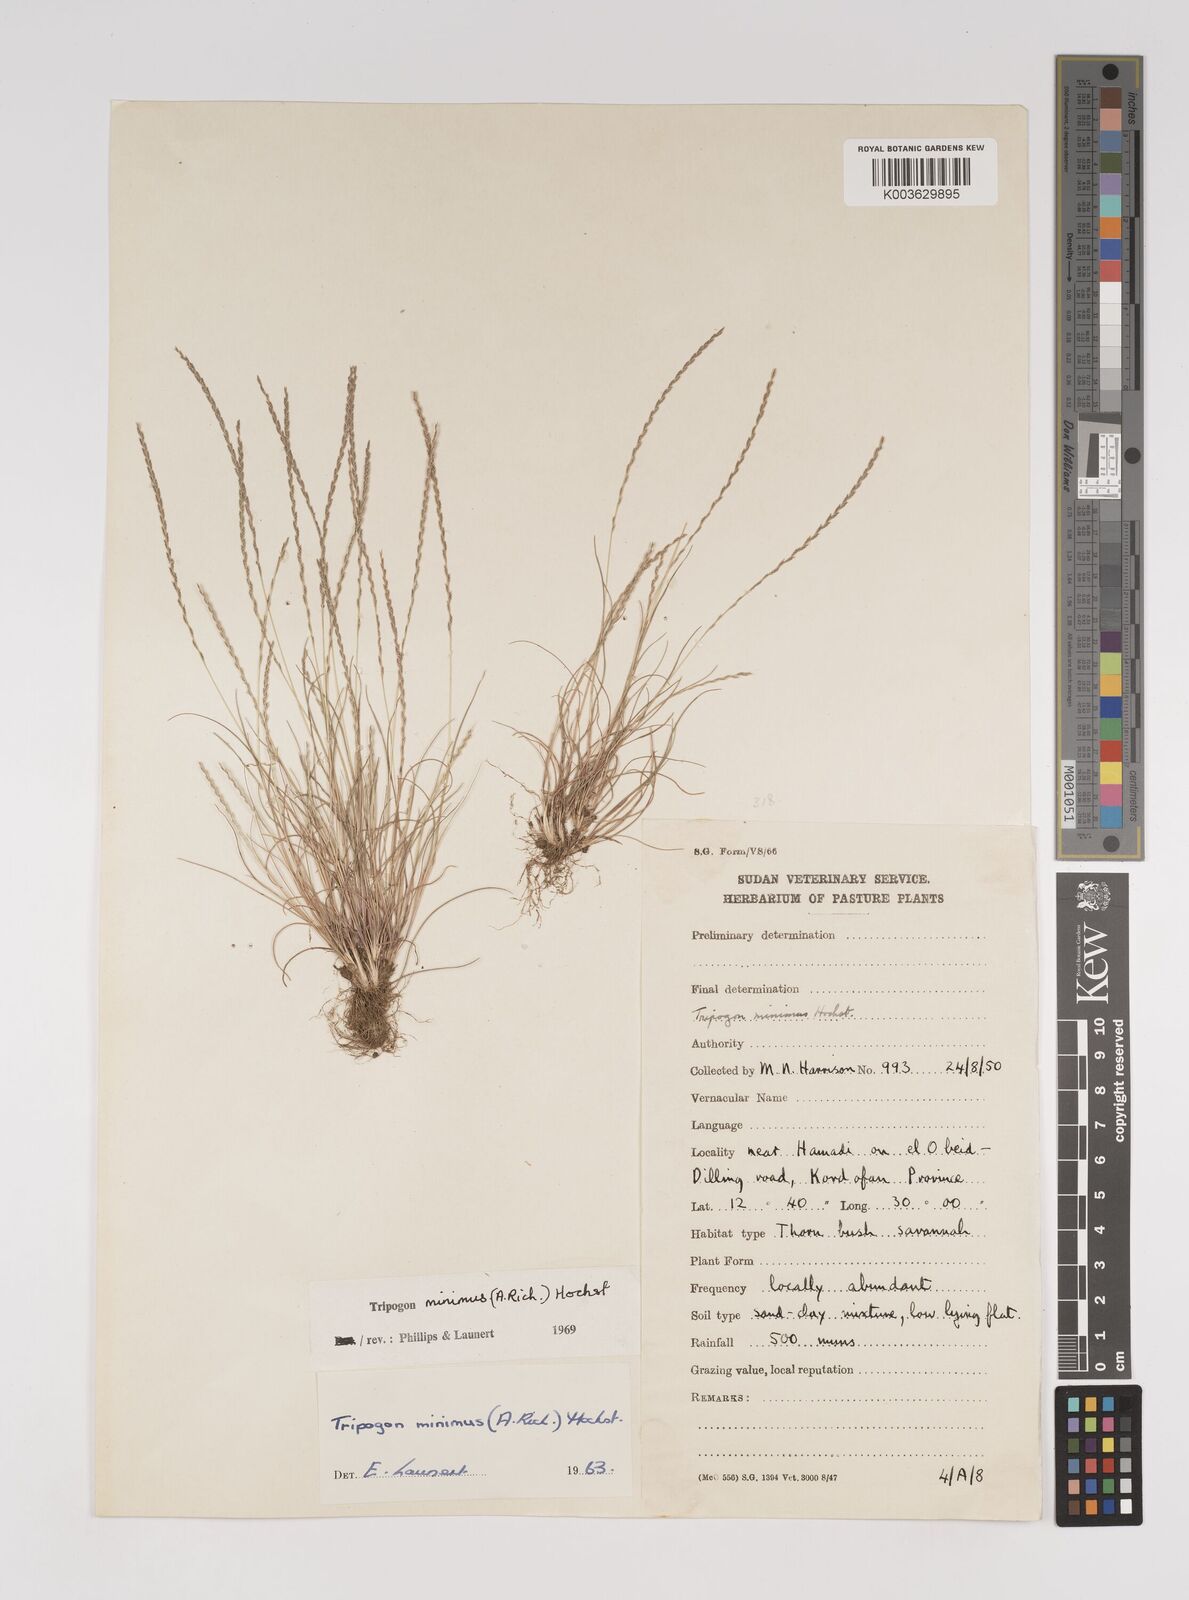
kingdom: Plantae
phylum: Tracheophyta
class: Liliopsida
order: Poales
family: Poaceae
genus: Tripogonella
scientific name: Tripogonella minima
